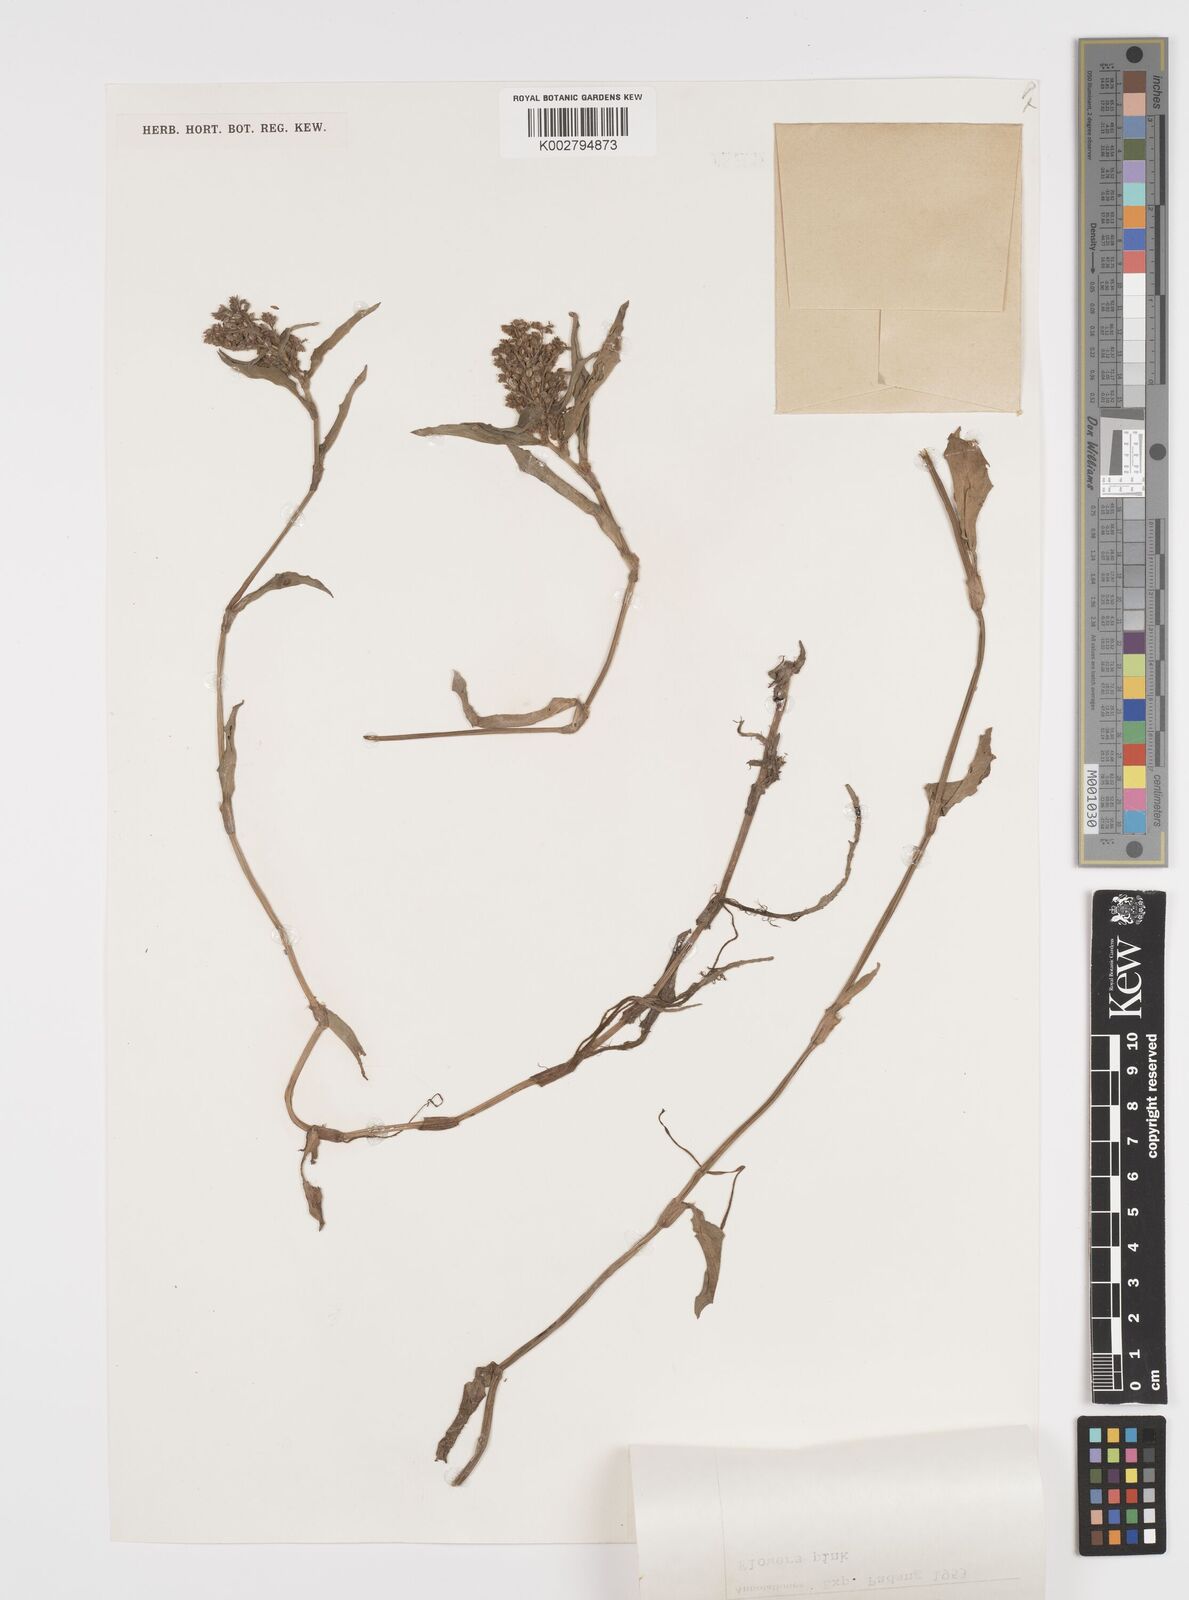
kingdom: Plantae
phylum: Tracheophyta
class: Liliopsida
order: Commelinales
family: Commelinaceae
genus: Floscopa
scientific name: Floscopa scandens
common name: Climbing flower cup
